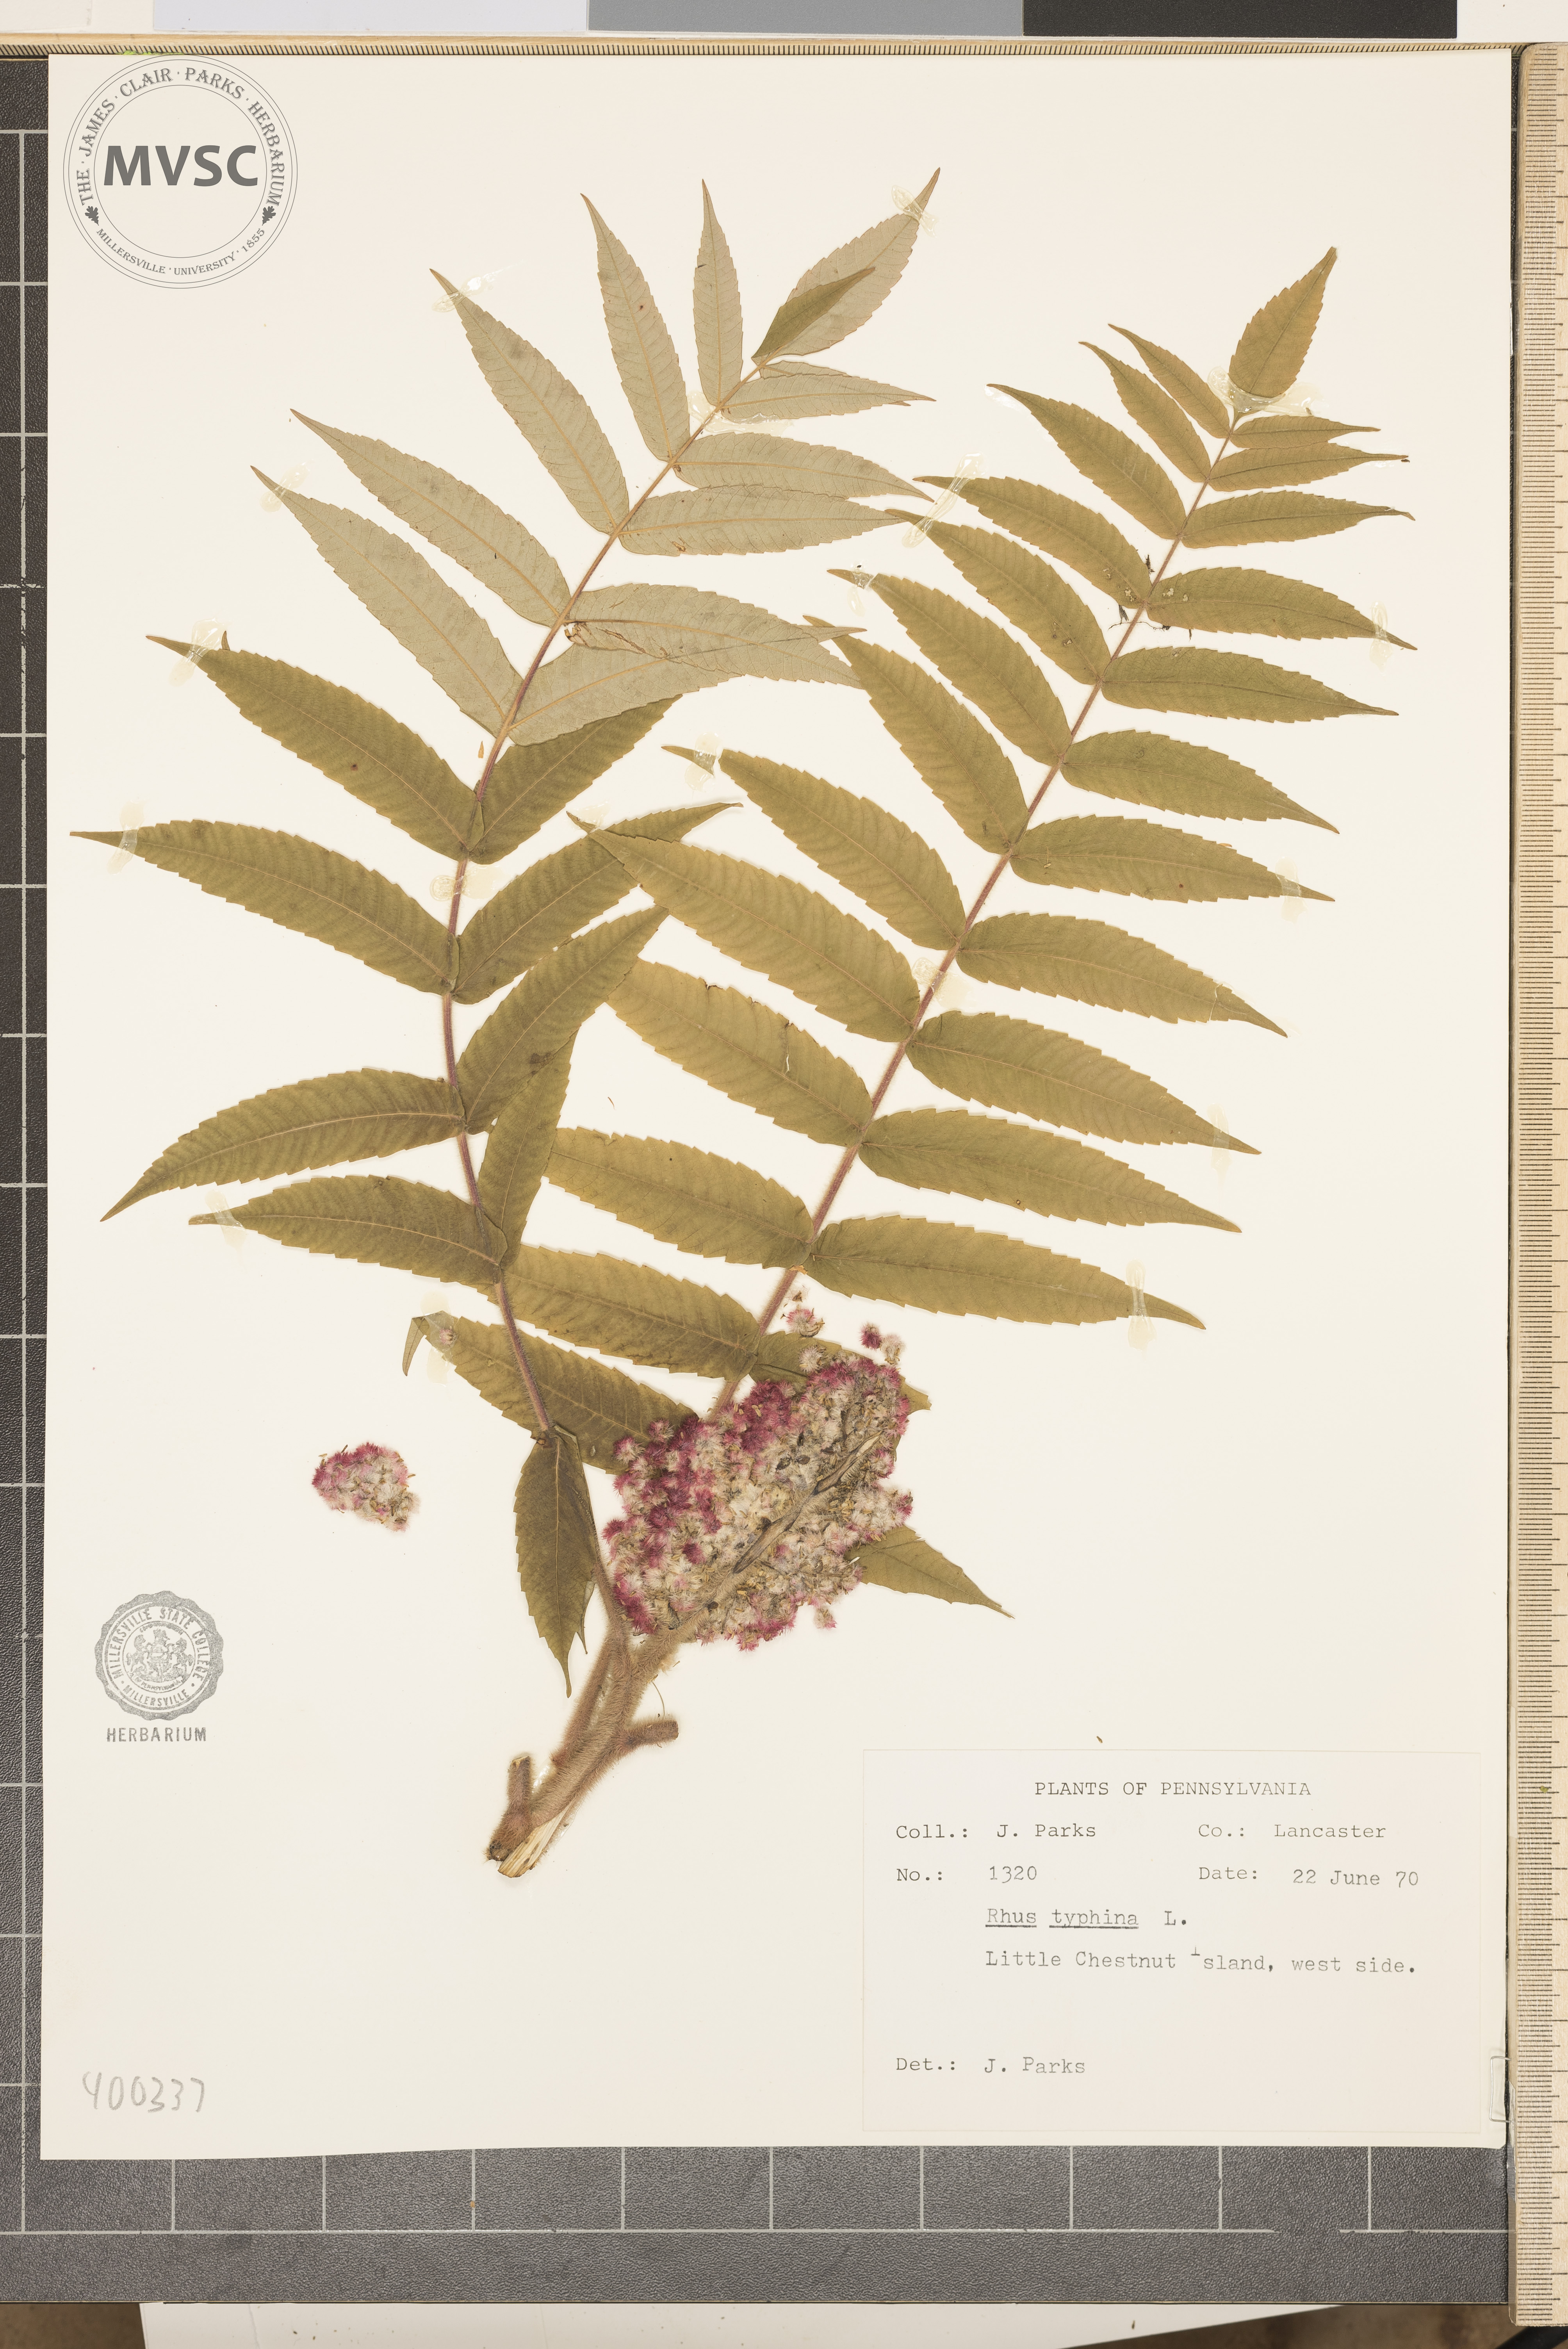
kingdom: Plantae
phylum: Tracheophyta
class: Magnoliopsida
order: Sapindales
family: Anacardiaceae
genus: Rhus
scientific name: Rhus typhina
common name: sumac
